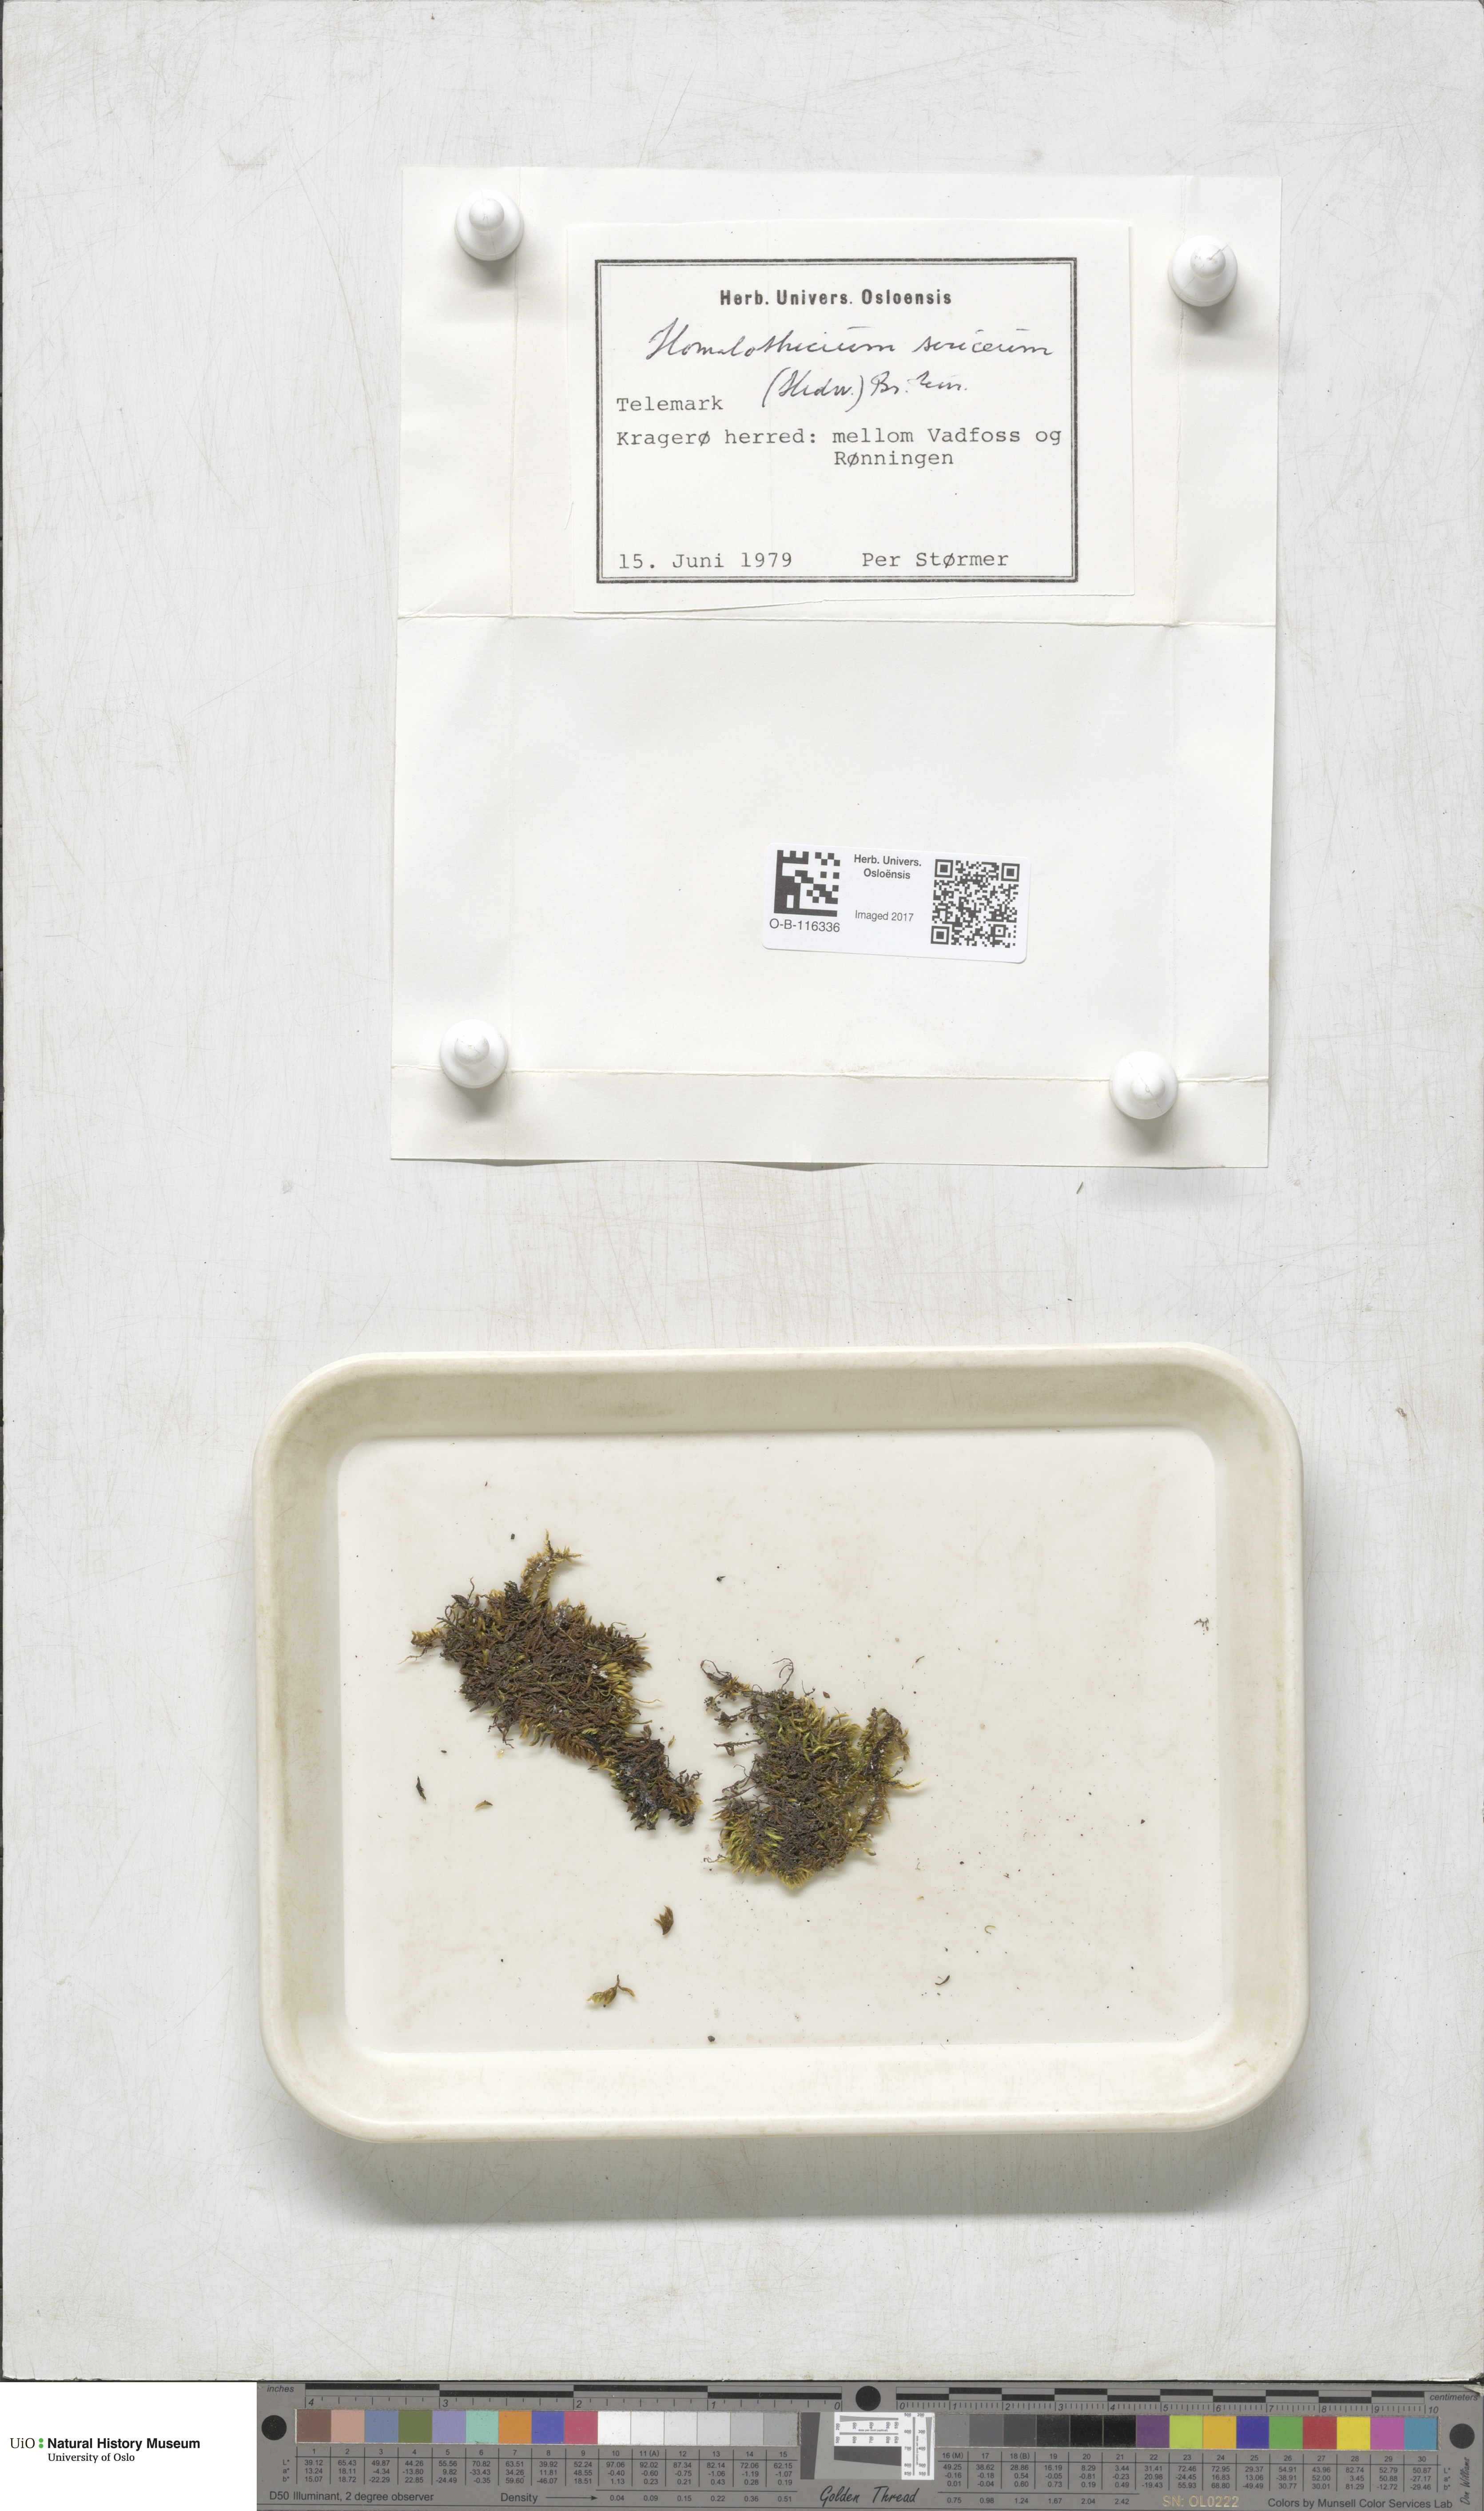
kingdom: Plantae
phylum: Bryophyta
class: Bryopsida
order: Hypnales
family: Brachytheciaceae
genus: Homalothecium
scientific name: Homalothecium sericeum
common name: Silky wall feather-moss
